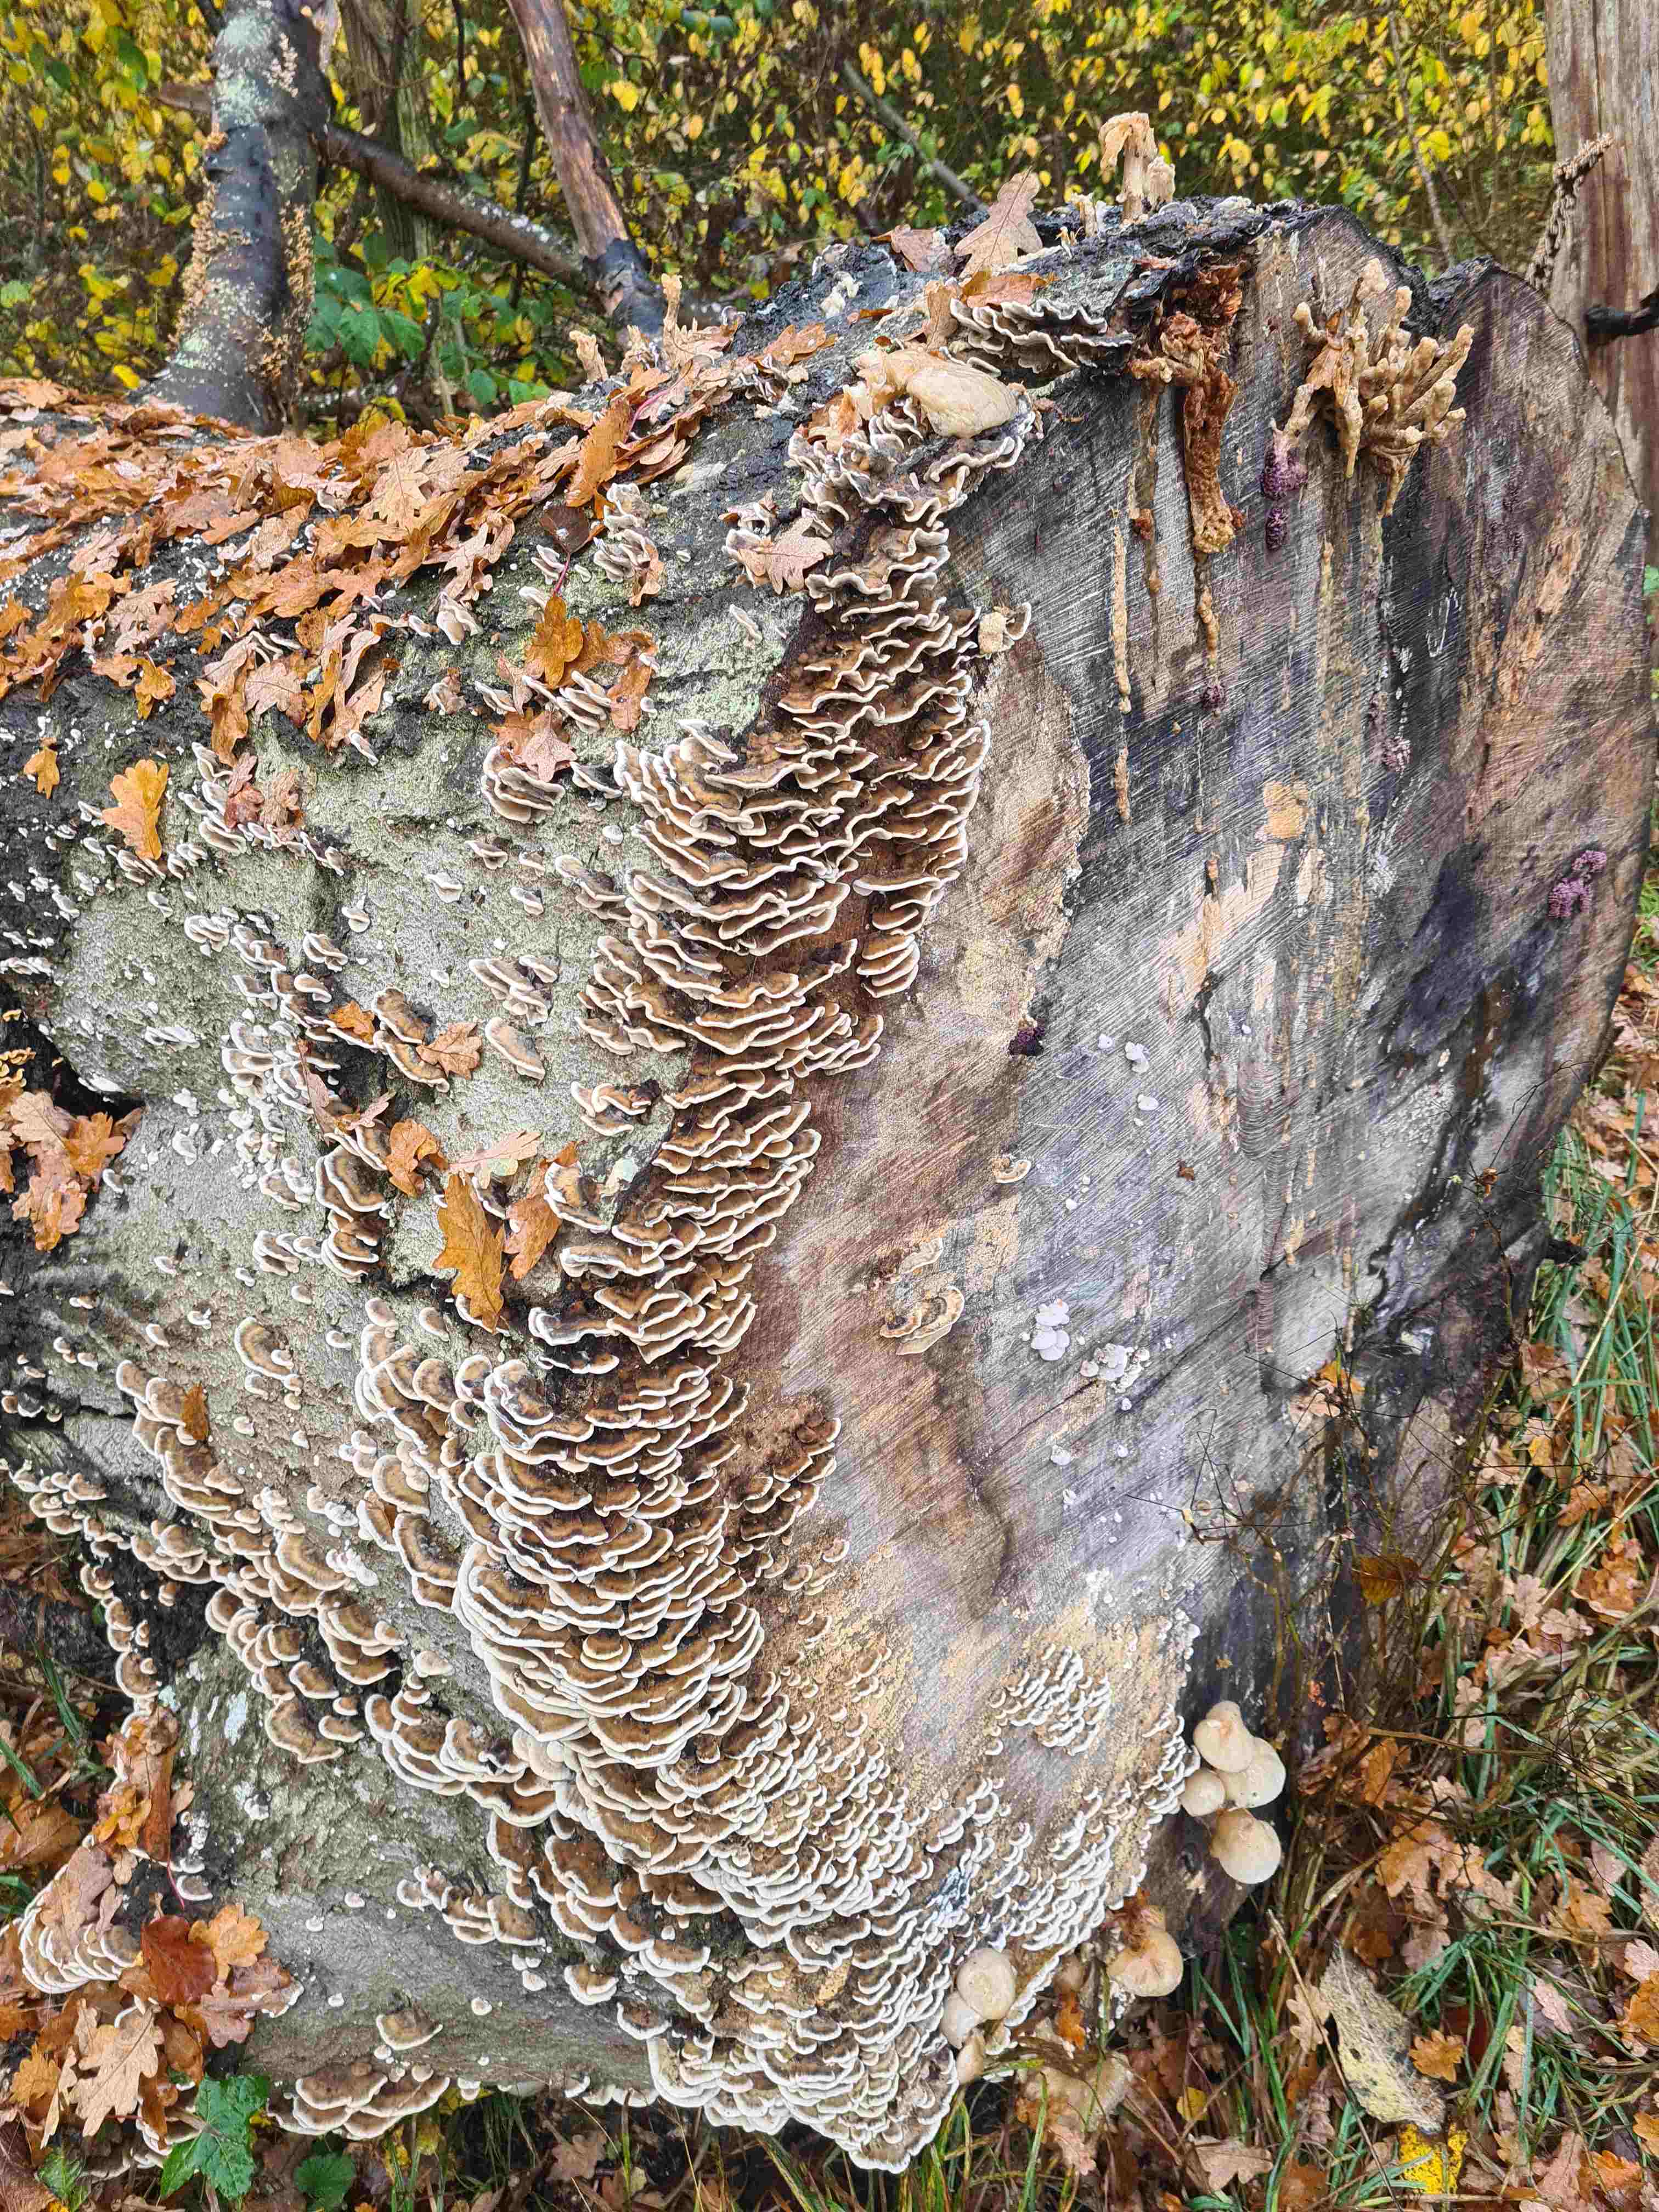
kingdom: Fungi
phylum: Basidiomycota
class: Agaricomycetes
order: Russulales
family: Stereaceae
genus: Stereum
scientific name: Stereum hirsutum
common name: håret lædersvamp
